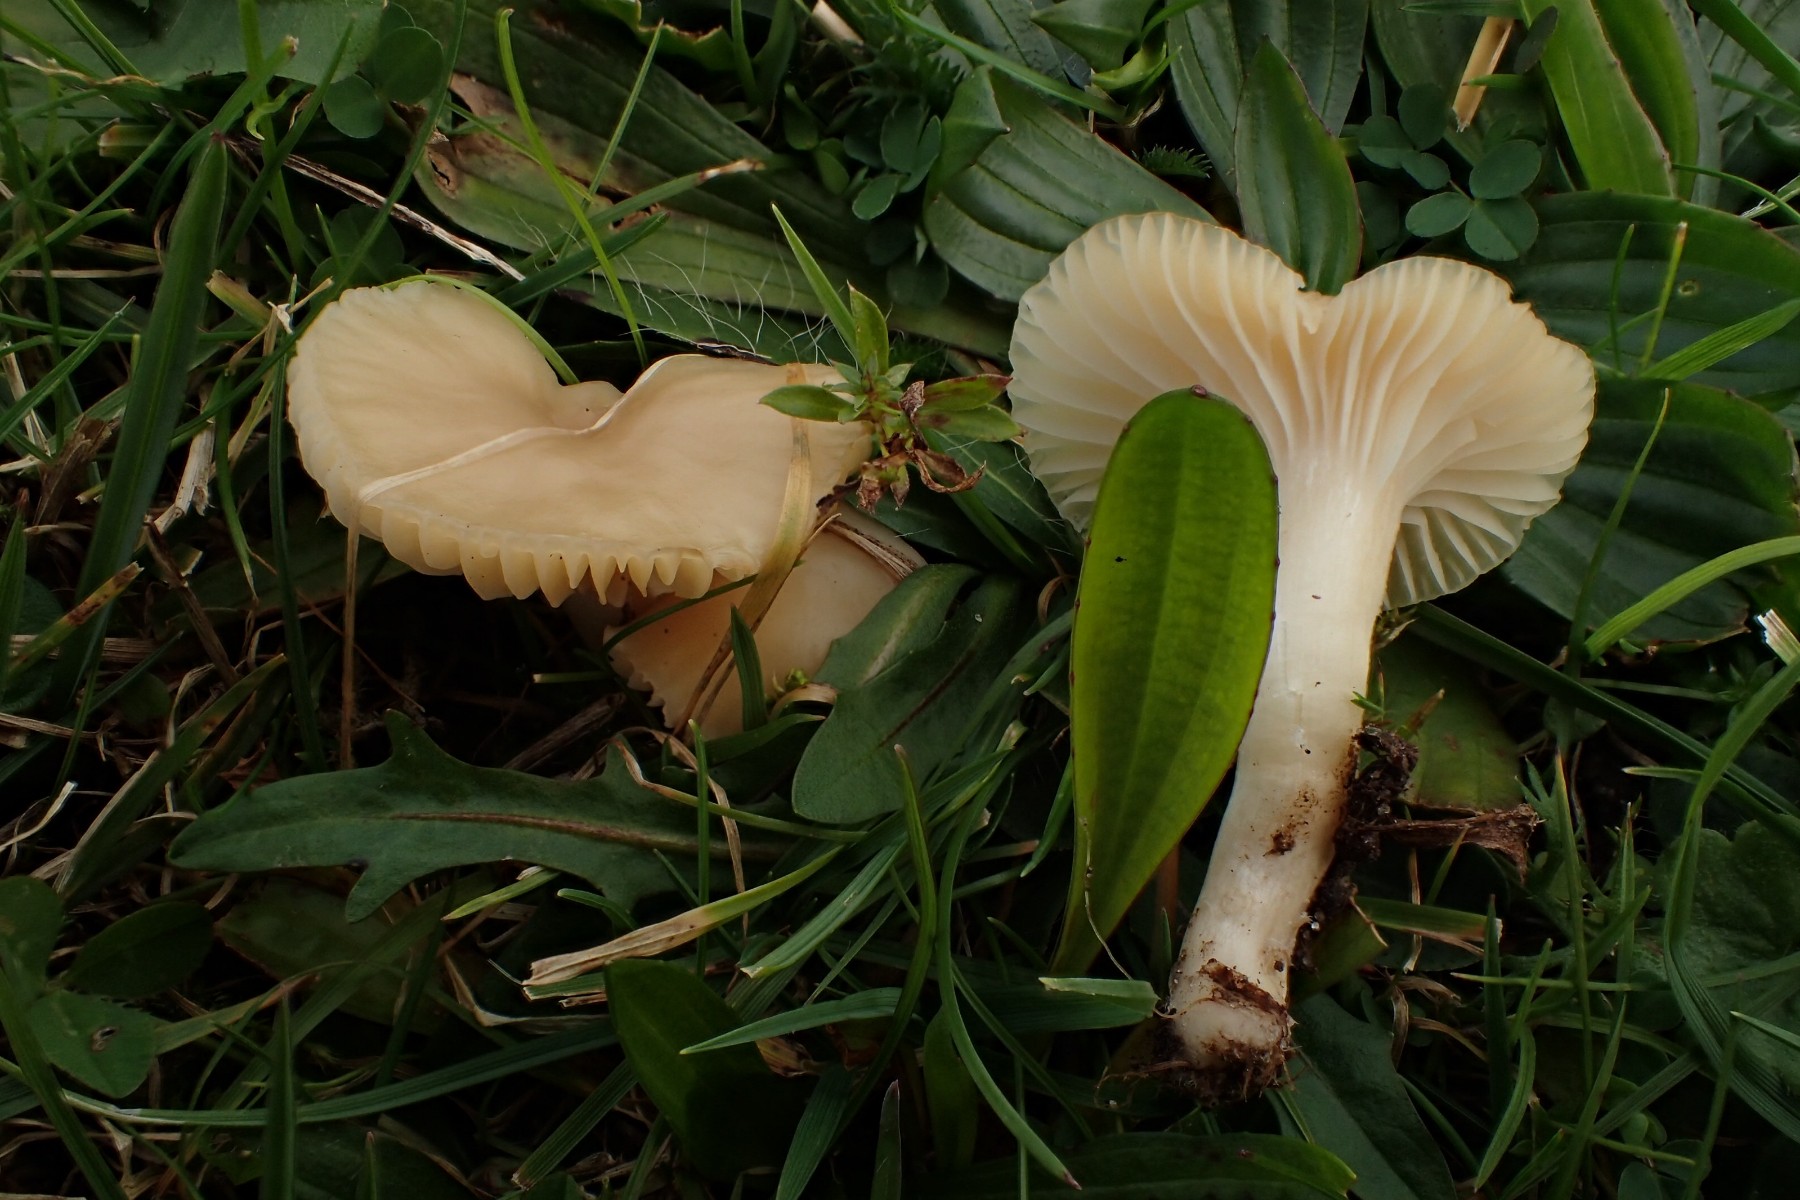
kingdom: Fungi
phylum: Basidiomycota
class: Agaricomycetes
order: Agaricales
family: Hygrophoraceae
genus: Cuphophyllus
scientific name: Cuphophyllus virgineus
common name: isabella-vokshat
